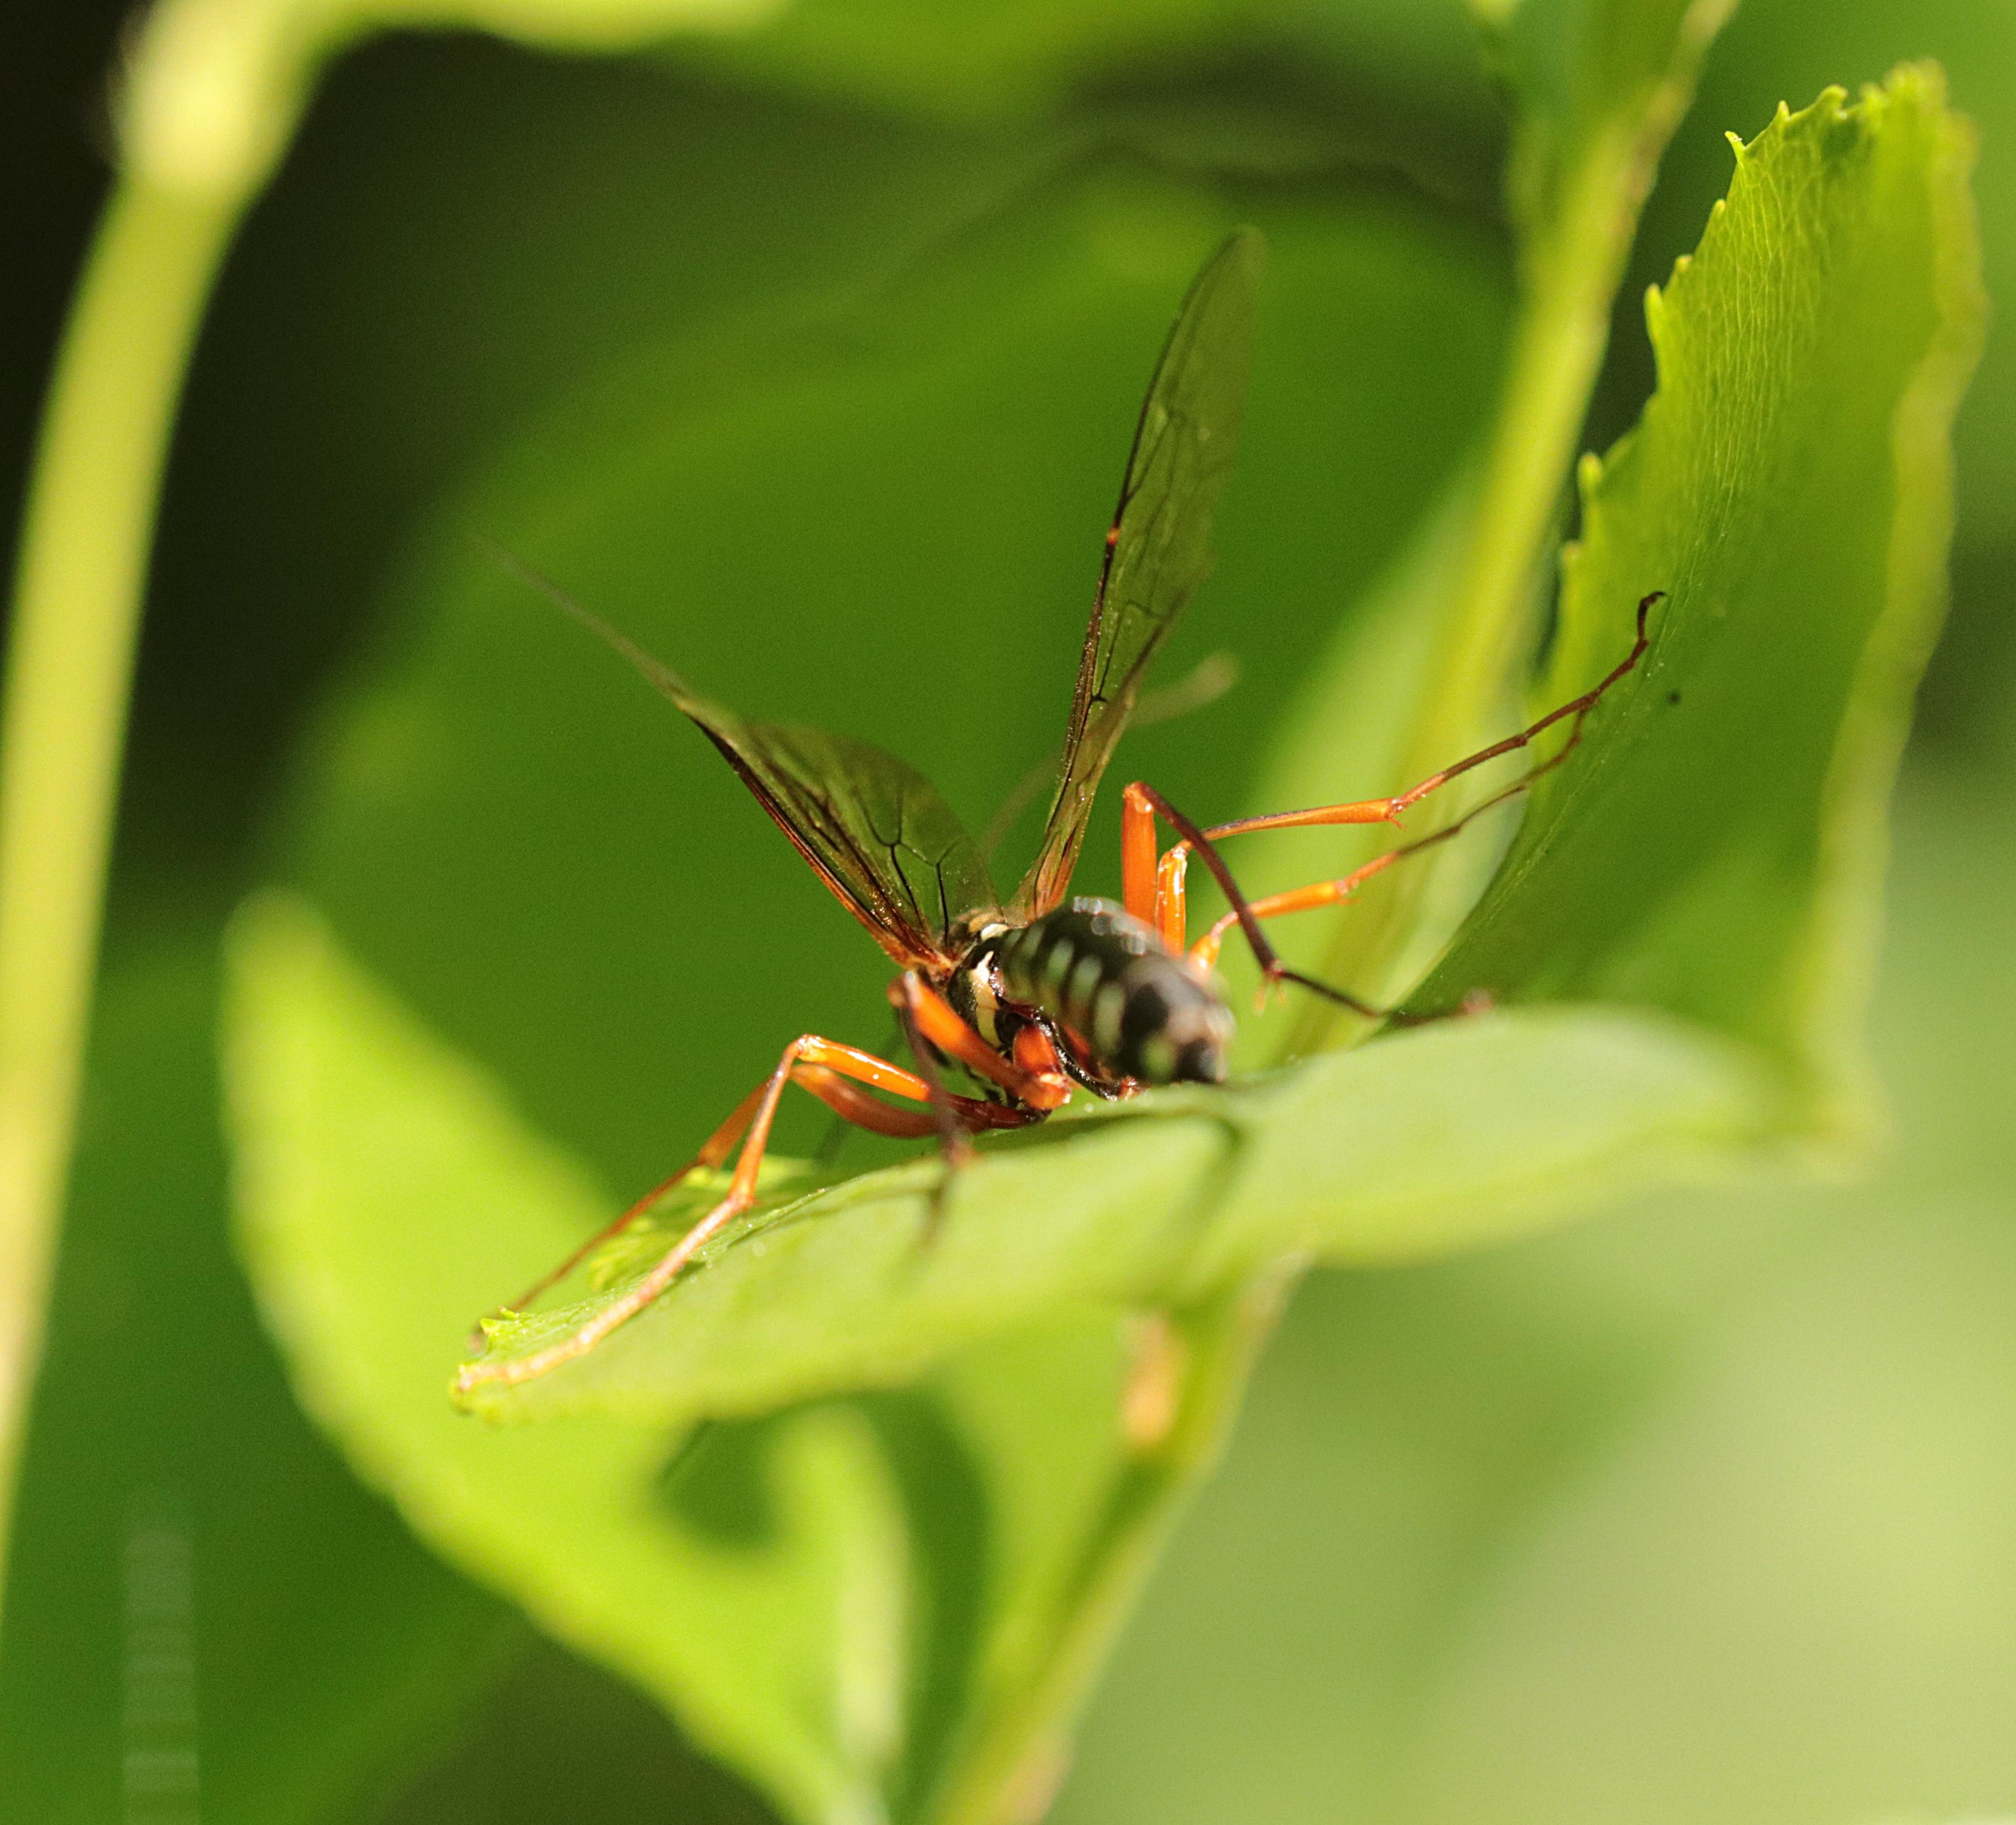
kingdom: Animalia
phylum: Arthropoda
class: Insecta
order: Hymenoptera
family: Ichneumonidae
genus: Rhyssa
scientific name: Rhyssa persuasoria
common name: Sabelhveps
